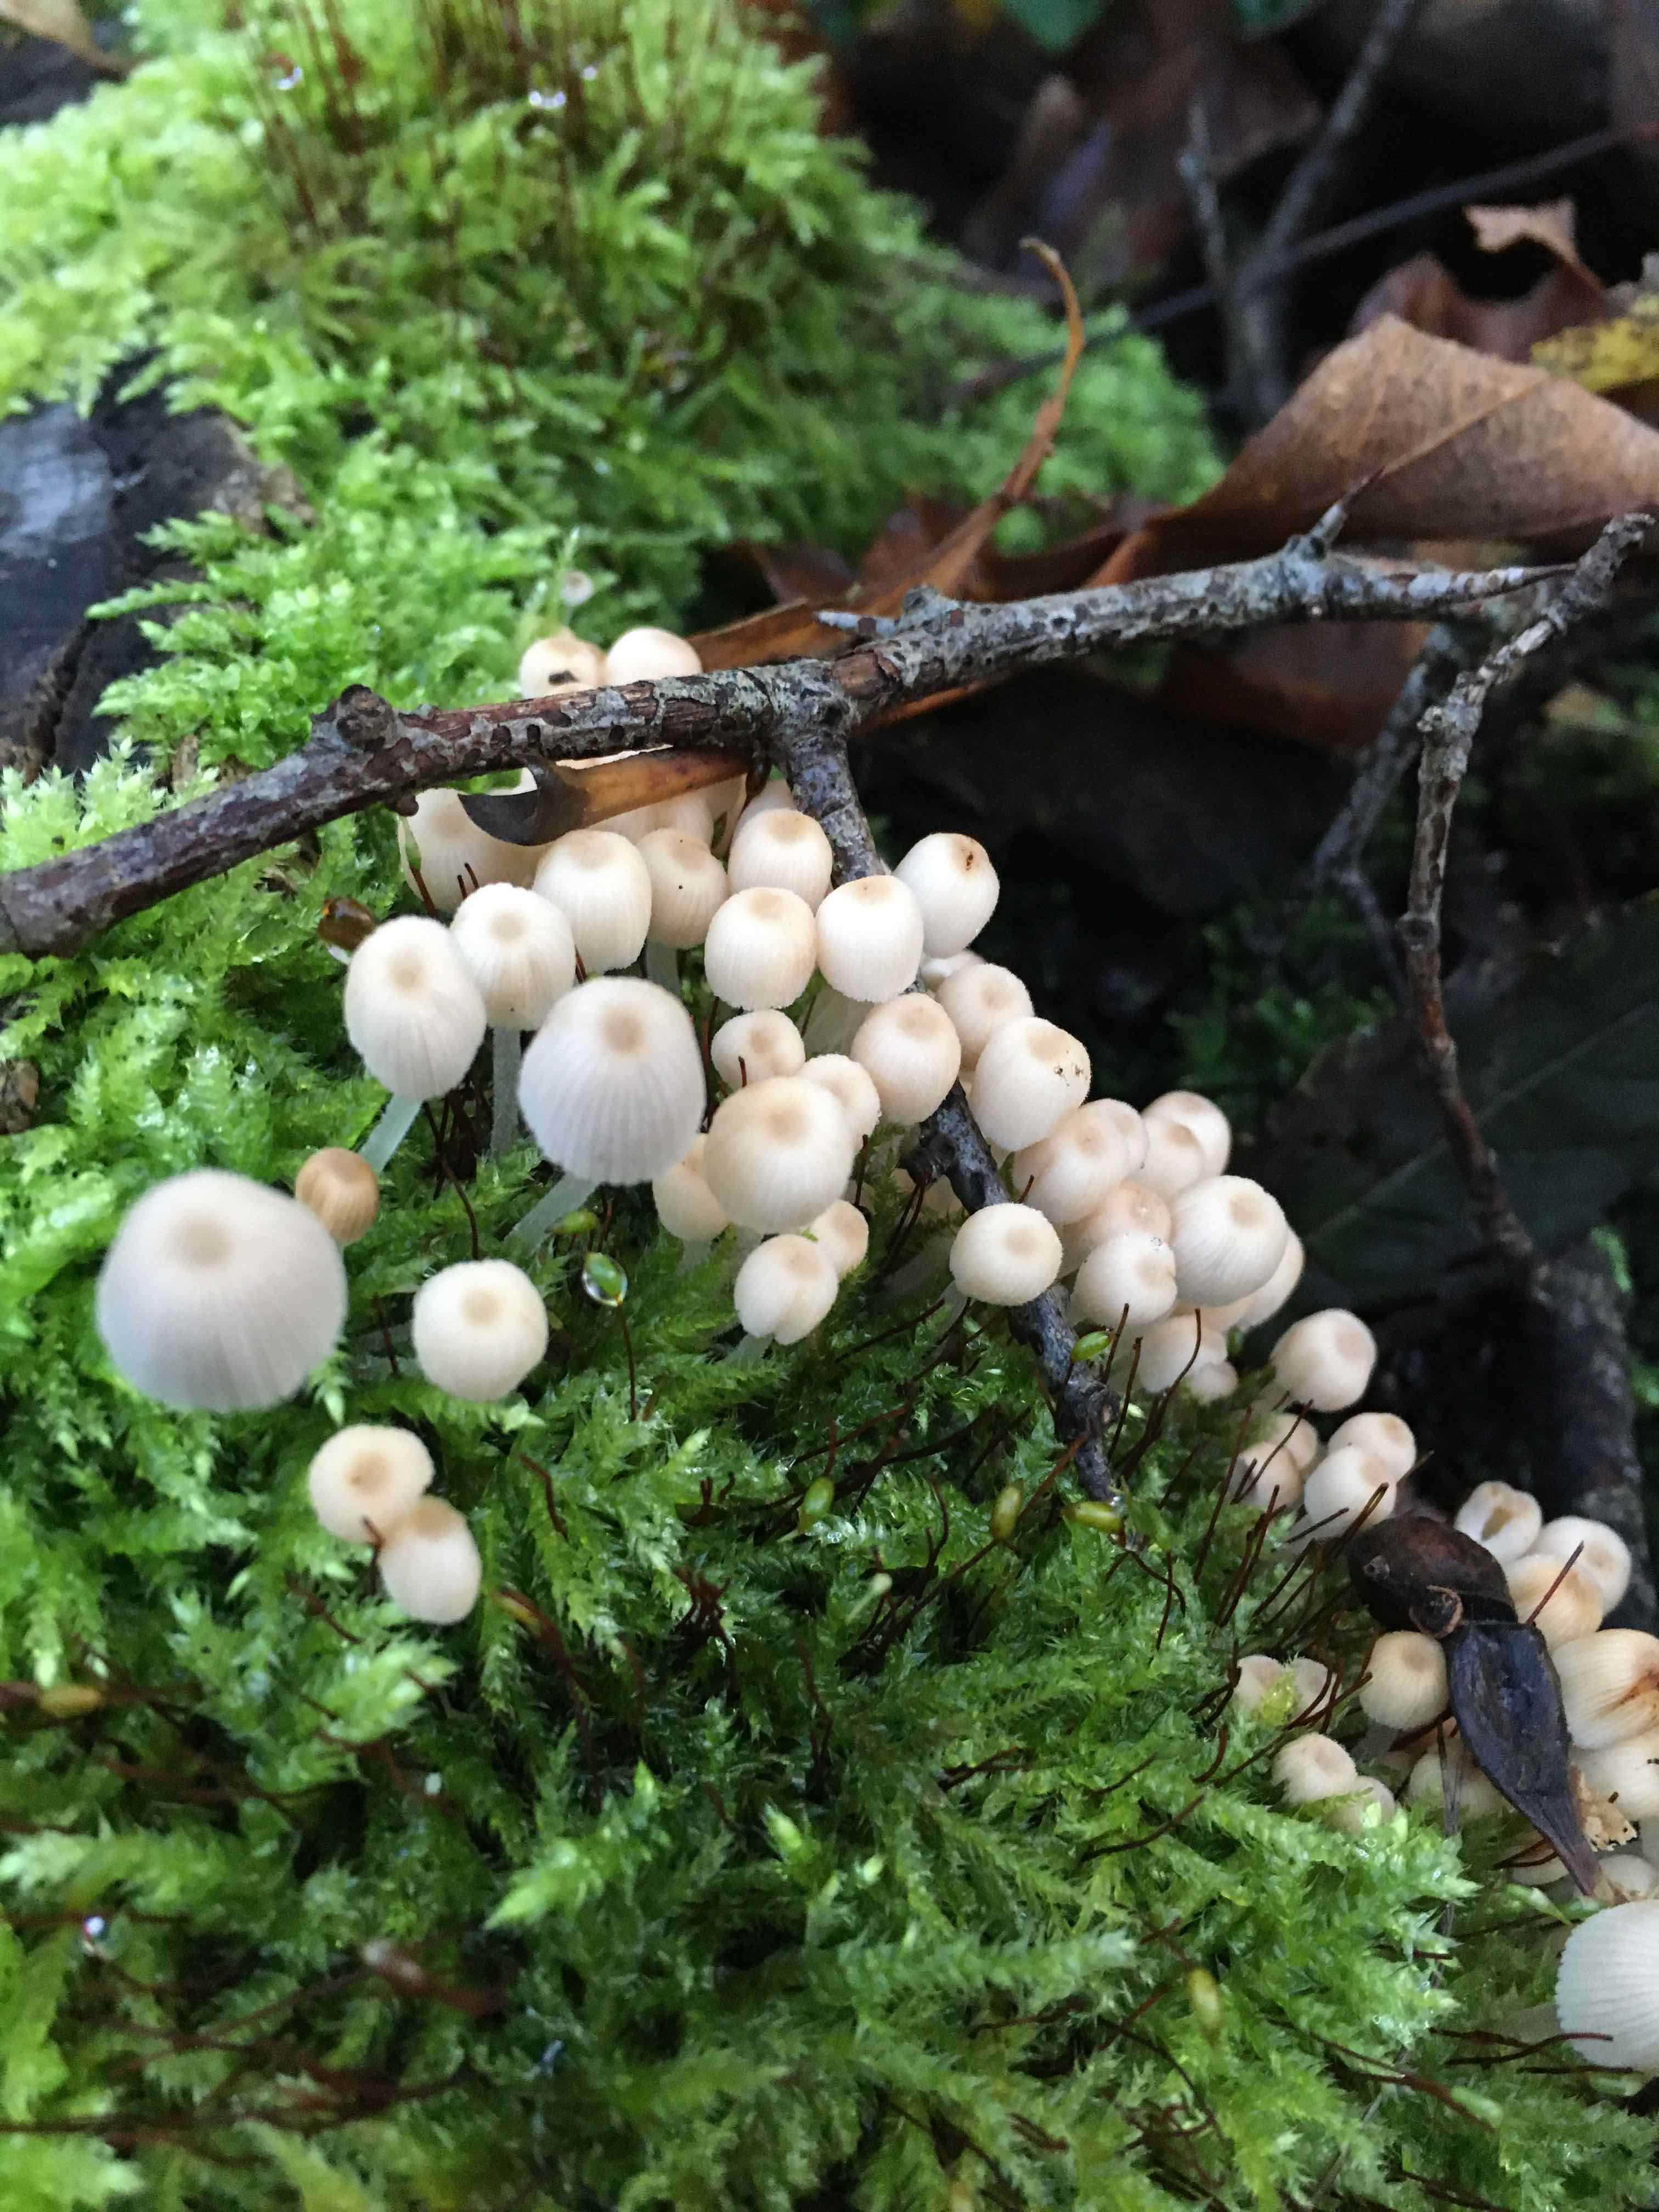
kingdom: Fungi
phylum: Basidiomycota
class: Agaricomycetes
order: Agaricales
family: Psathyrellaceae
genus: Coprinellus
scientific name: Coprinellus disseminatus
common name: bredsået blækhat
